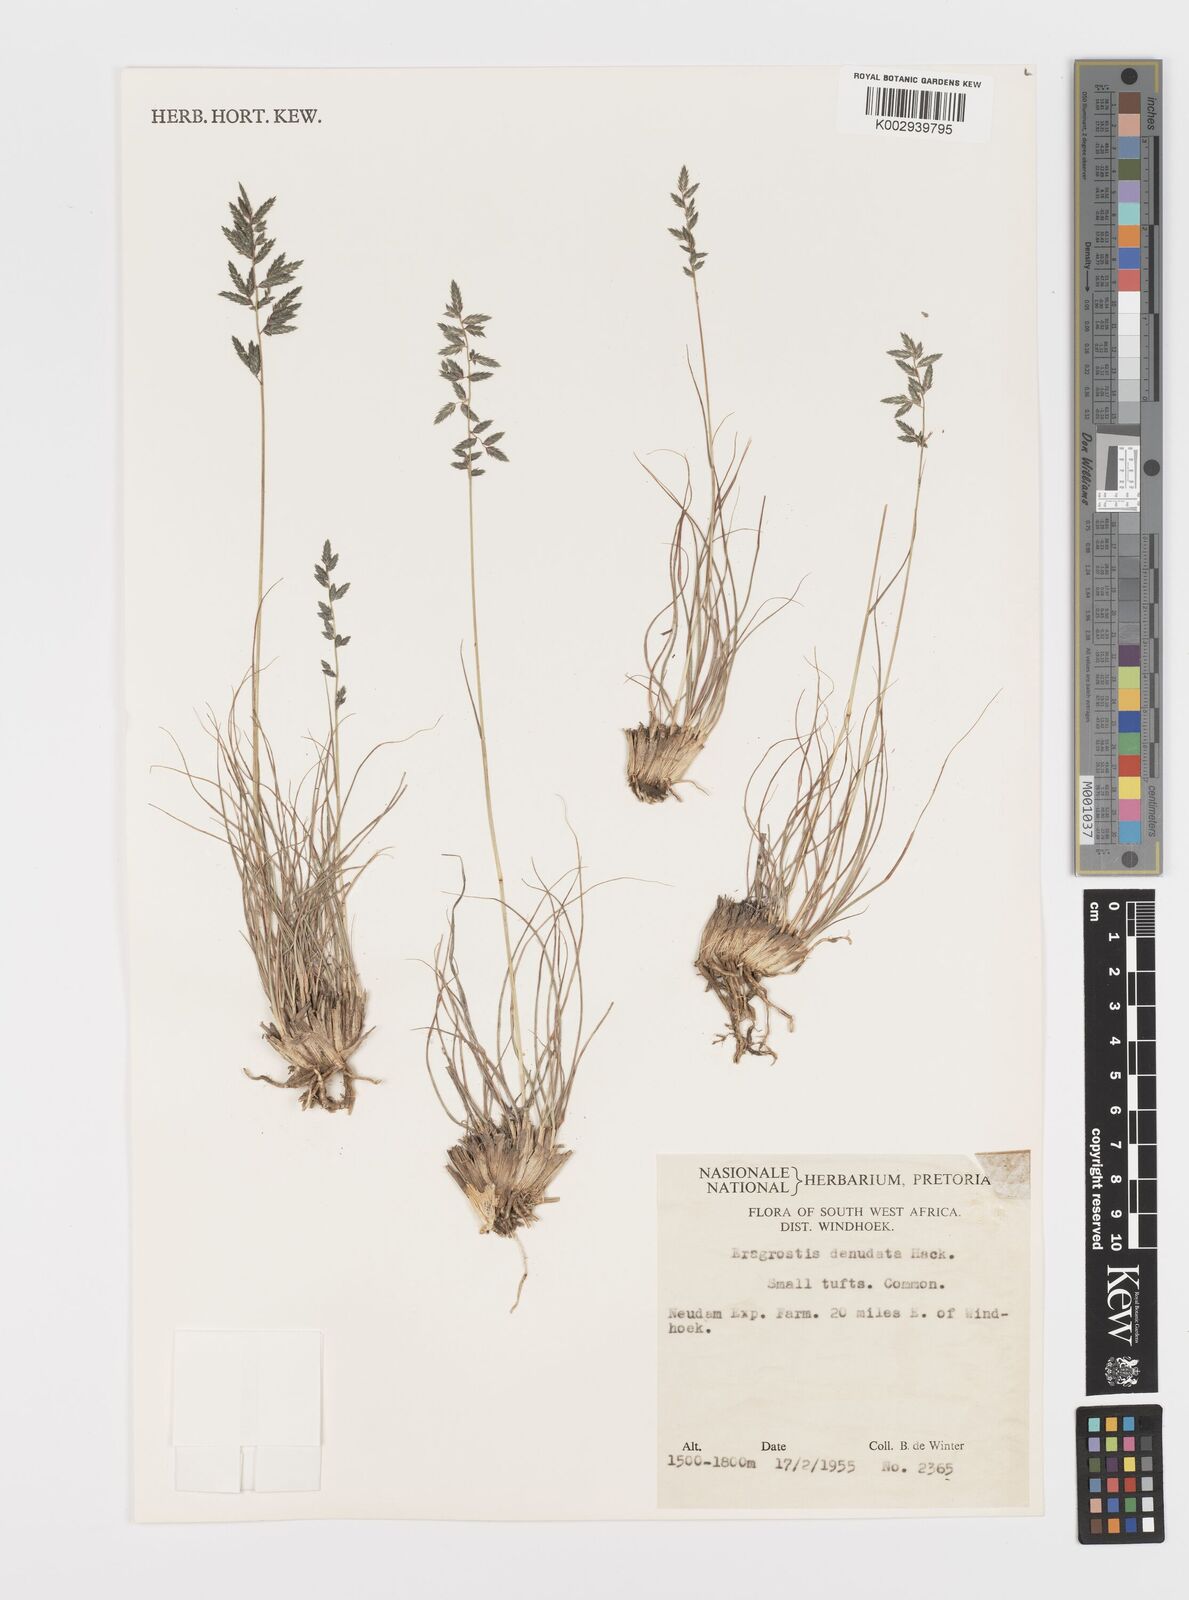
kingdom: Plantae
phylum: Tracheophyta
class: Liliopsida
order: Poales
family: Poaceae
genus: Eragrostis
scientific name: Eragrostis nindensis
